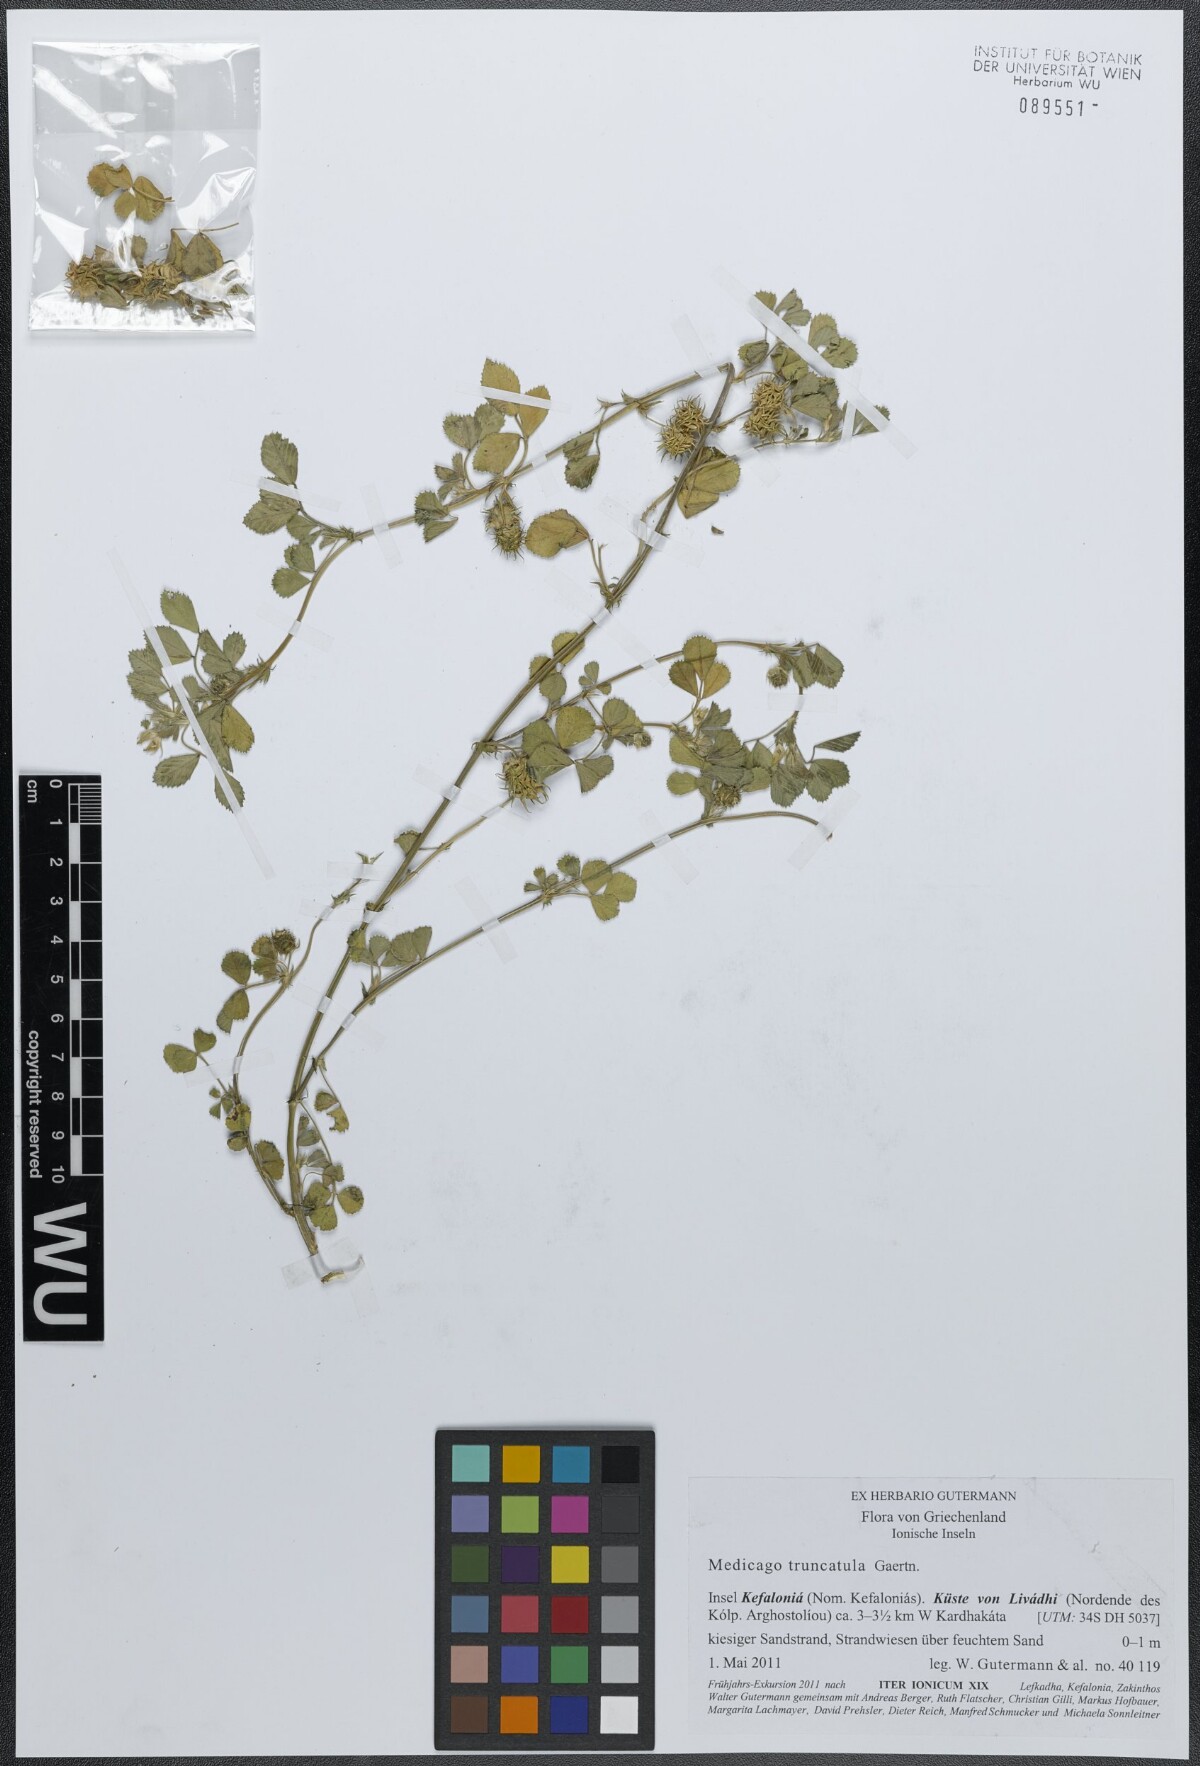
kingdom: Plantae
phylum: Tracheophyta
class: Magnoliopsida
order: Fabales
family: Fabaceae
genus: Medicago
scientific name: Medicago truncatula
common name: Strong-spined medick
